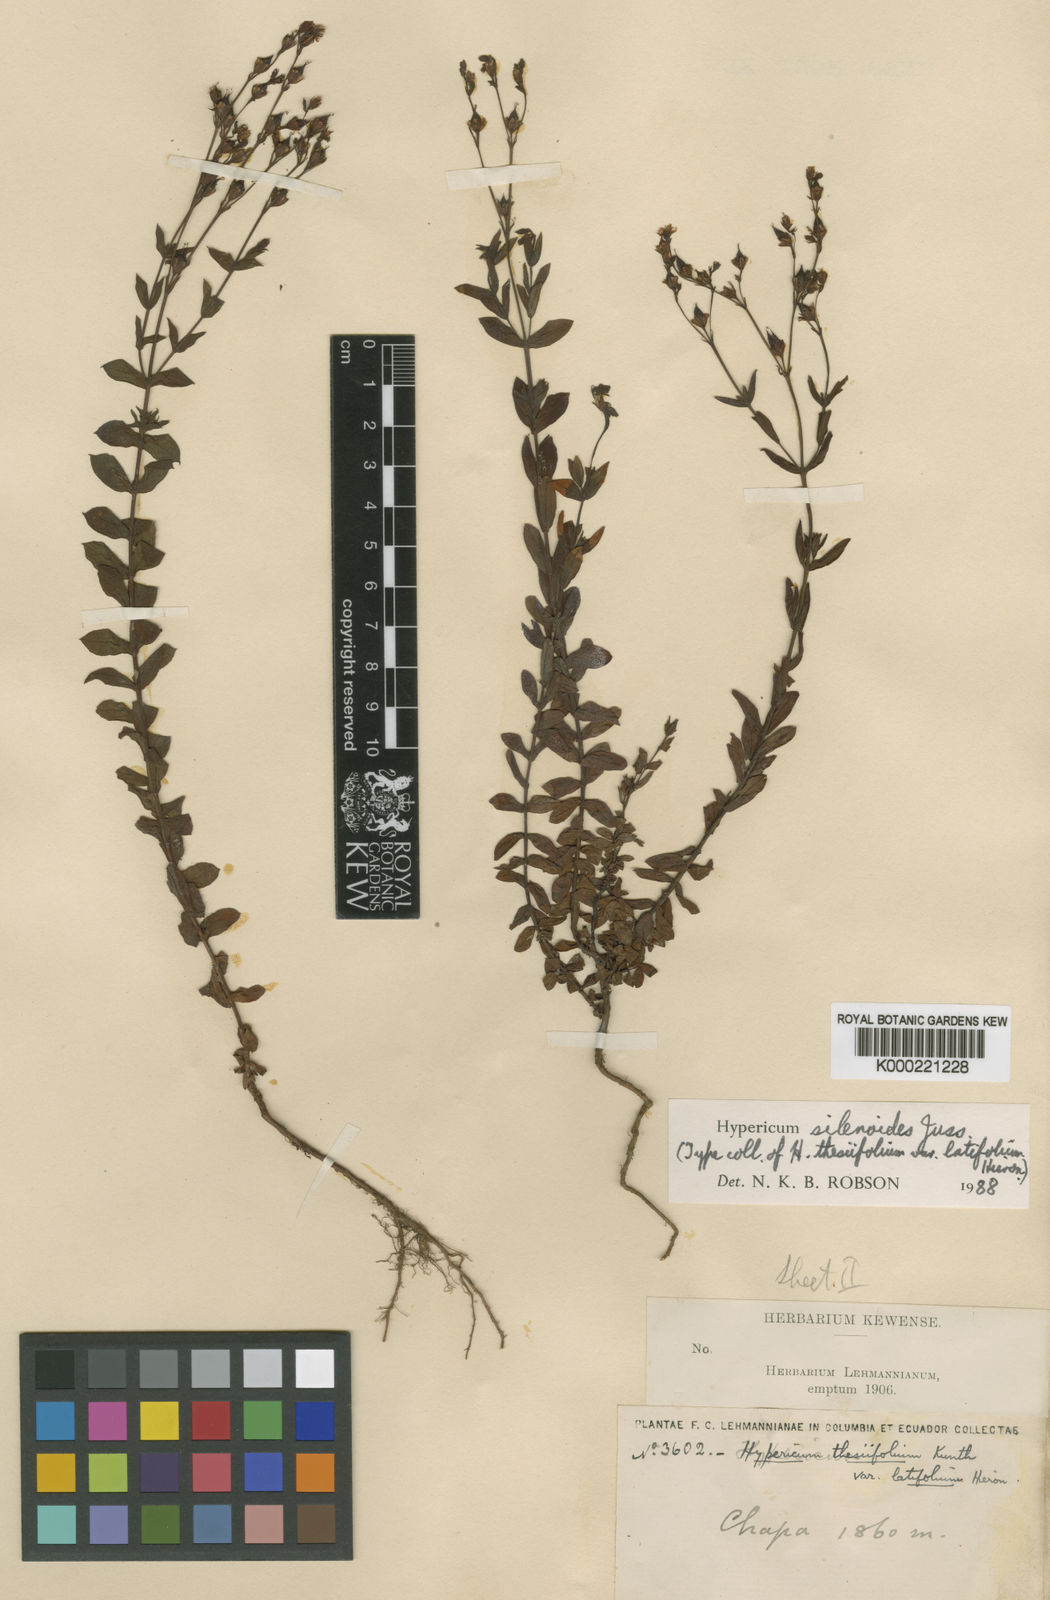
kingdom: Plantae
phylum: Tracheophyta
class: Magnoliopsida
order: Malpighiales
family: Hypericaceae
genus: Hypericum
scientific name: Hypericum silenoides
